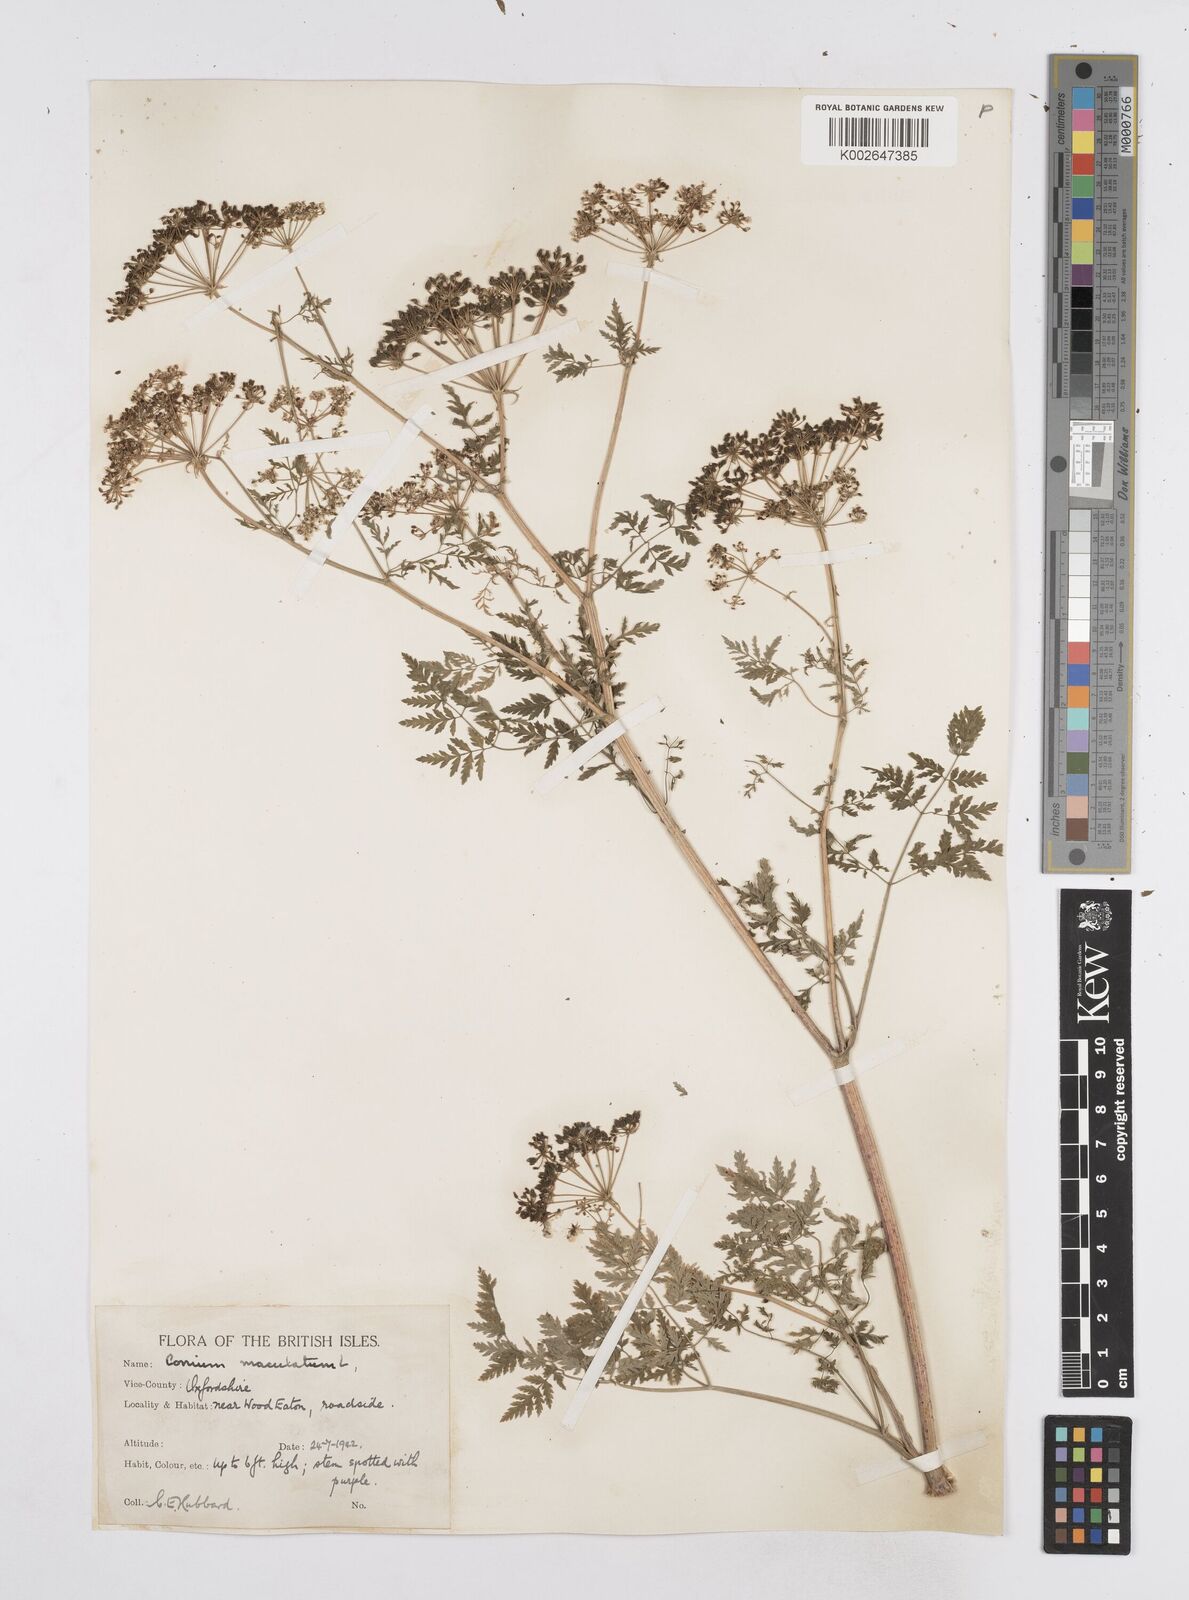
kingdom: Plantae
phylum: Tracheophyta
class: Magnoliopsida
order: Apiales
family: Apiaceae
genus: Conium
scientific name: Conium maculatum
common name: Hemlock
